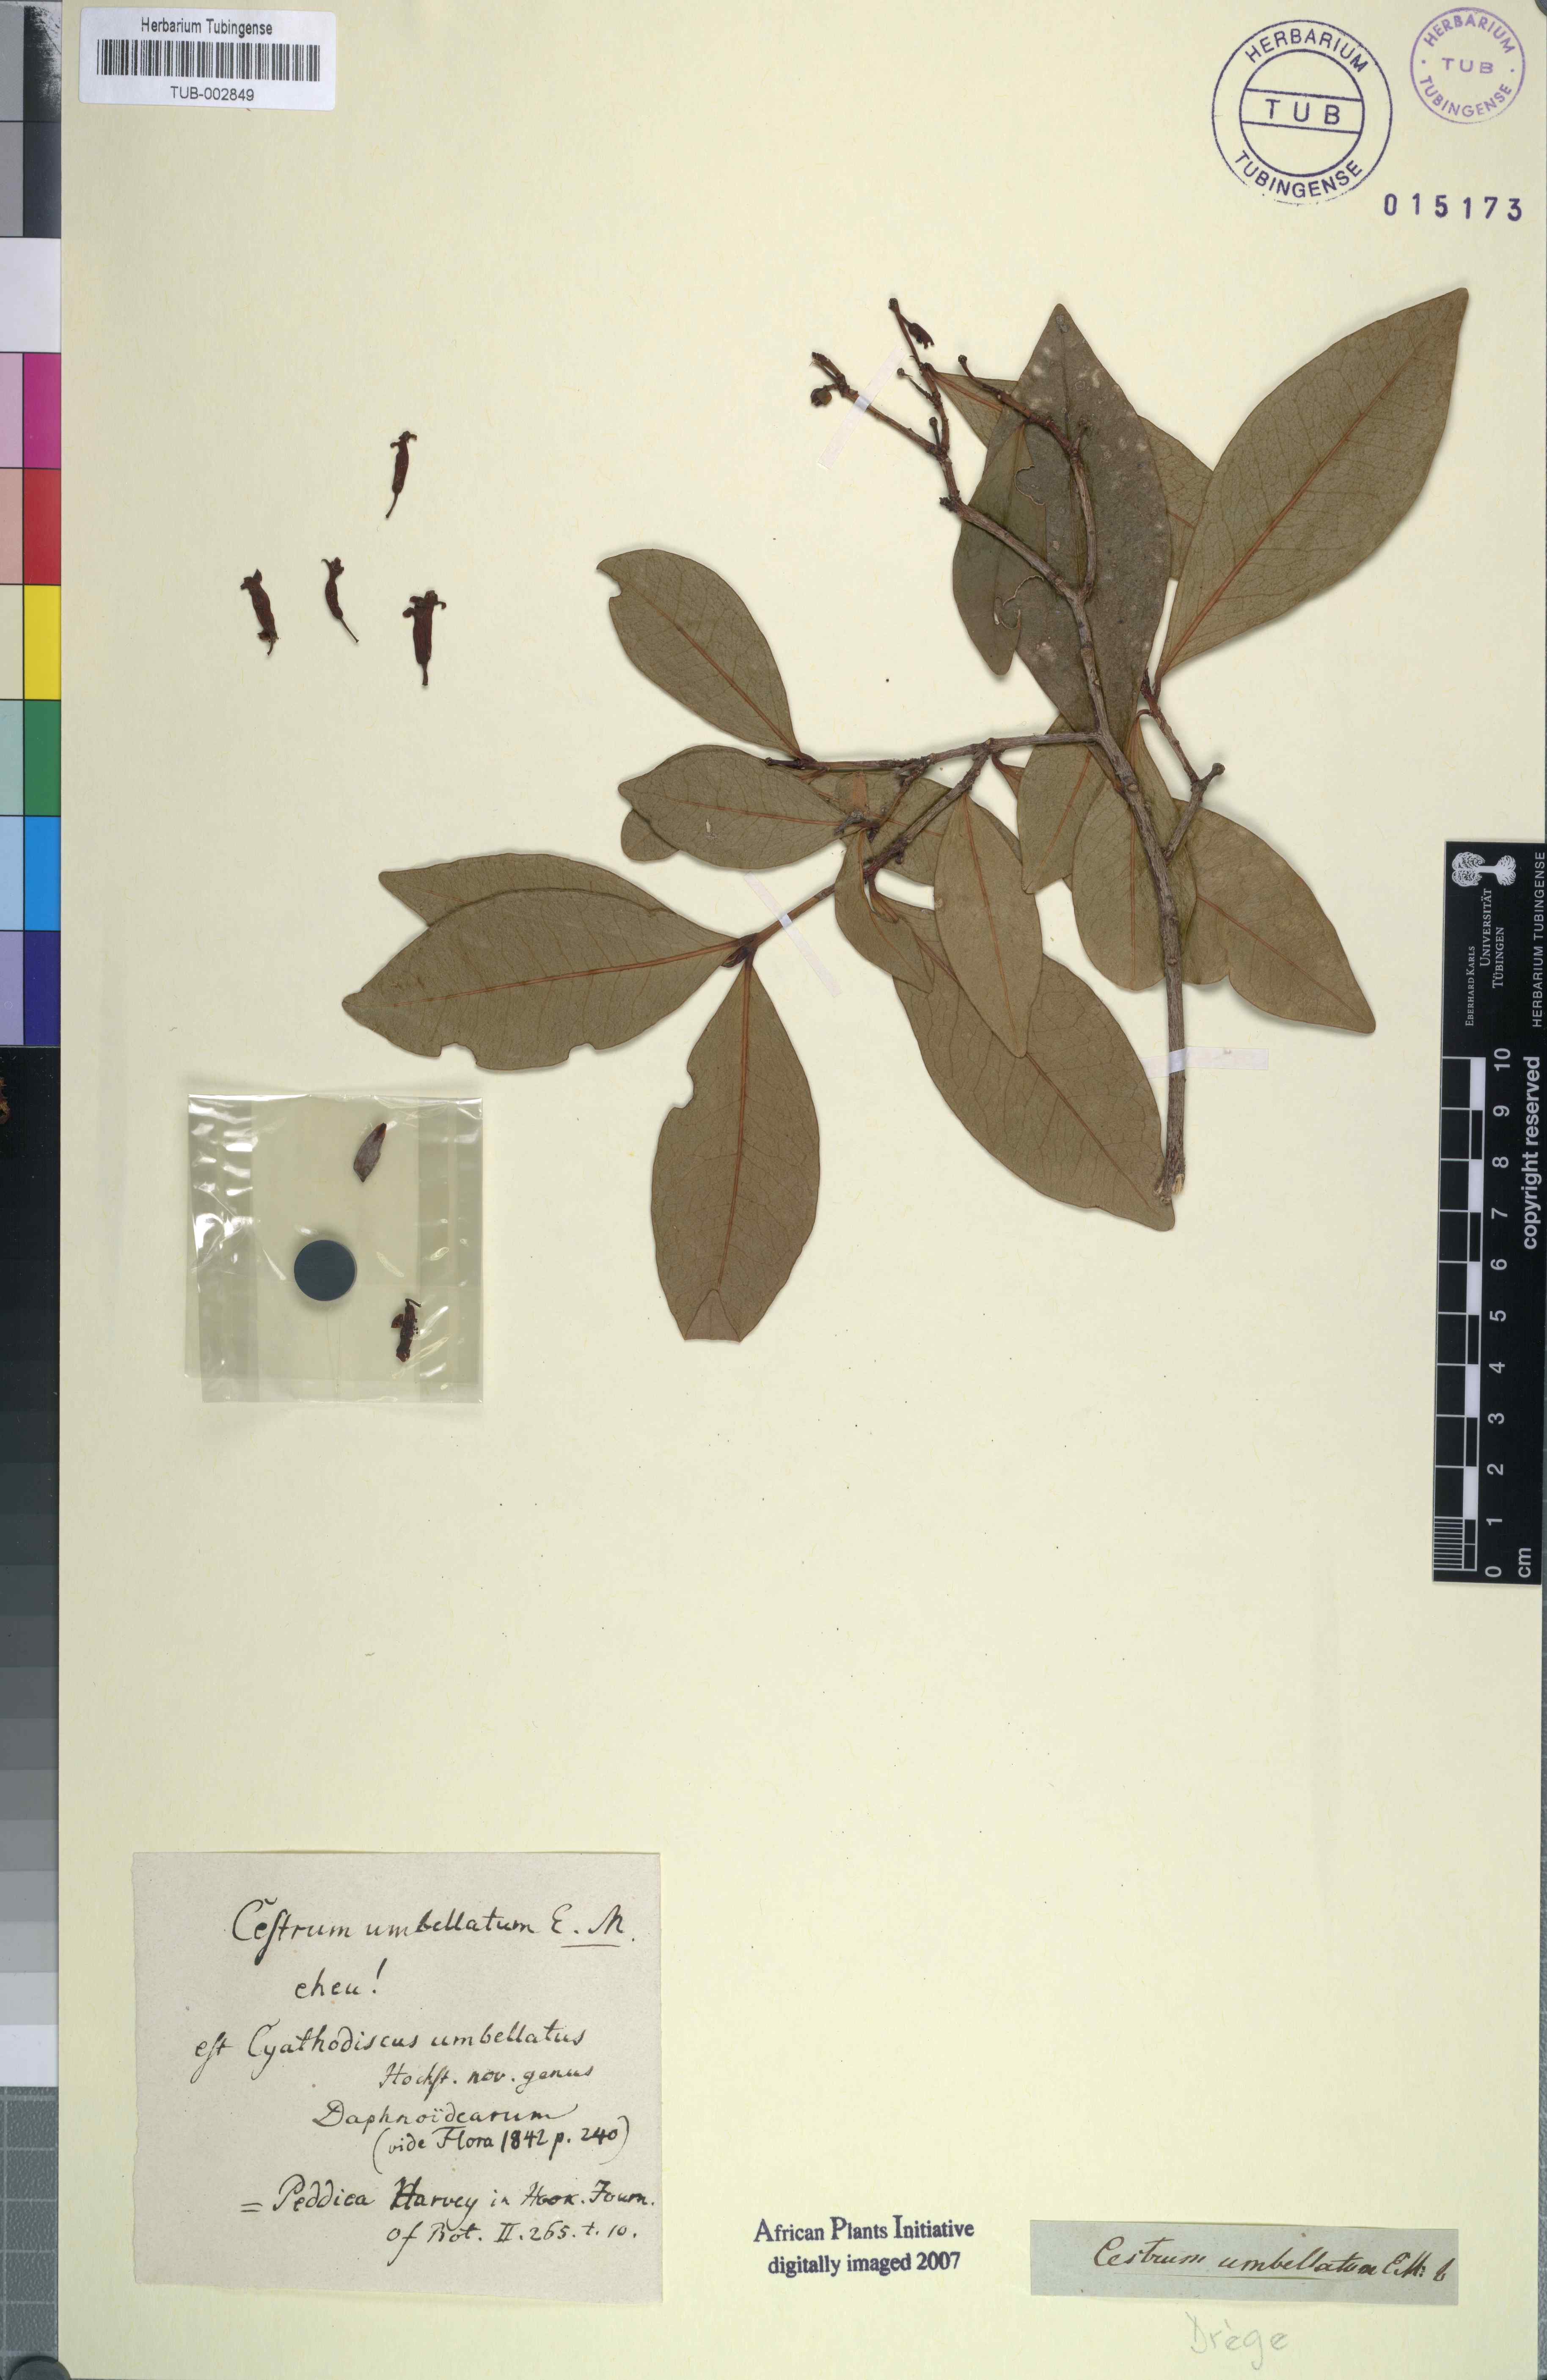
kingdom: Plantae
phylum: Tracheophyta
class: Magnoliopsida
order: Malvales
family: Thymelaeaceae
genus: Peddiea
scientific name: Peddiea africana
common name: Poison olive
